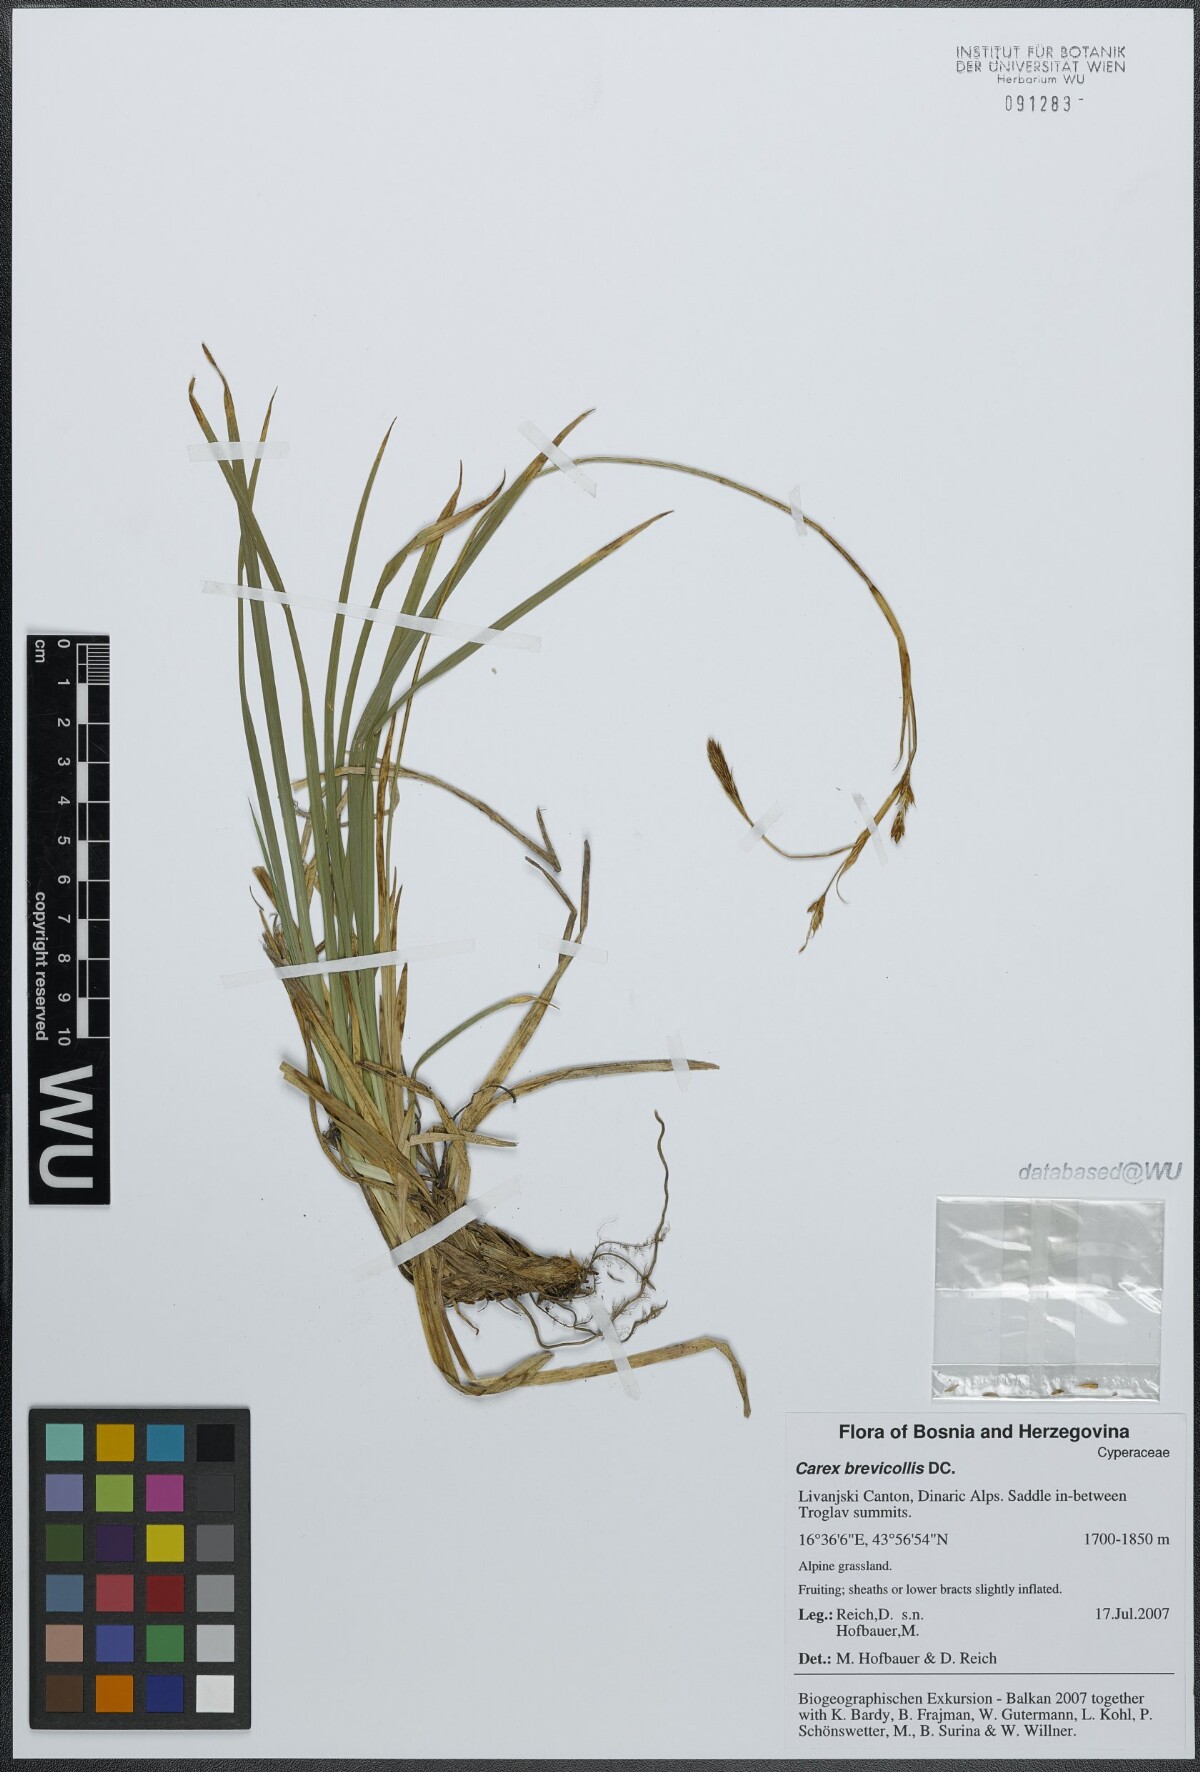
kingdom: Plantae
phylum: Tracheophyta
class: Liliopsida
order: Poales
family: Cyperaceae
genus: Carex
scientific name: Carex brevicollis
